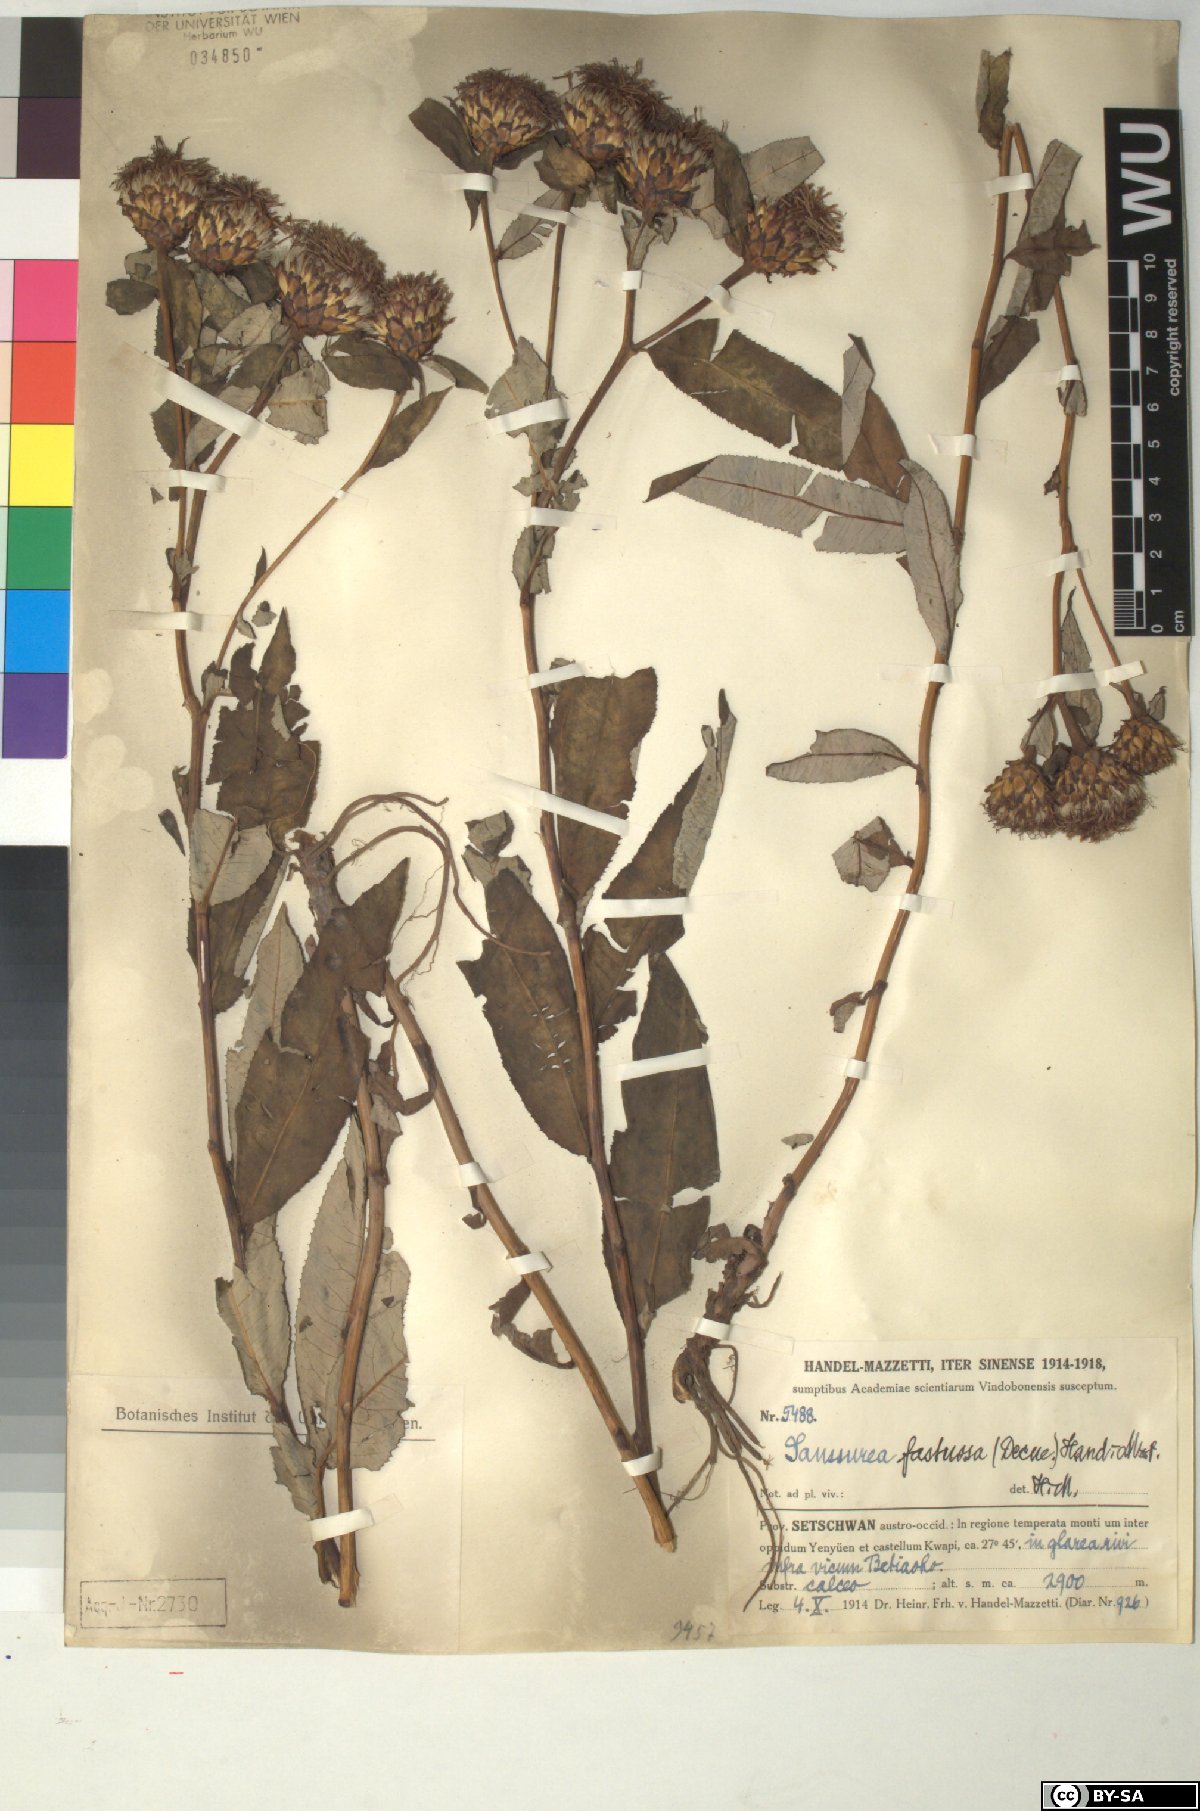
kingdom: Plantae
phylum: Tracheophyta
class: Magnoliopsida
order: Asterales
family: Asteraceae
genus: Shangwua
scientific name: Shangwua denticulata
